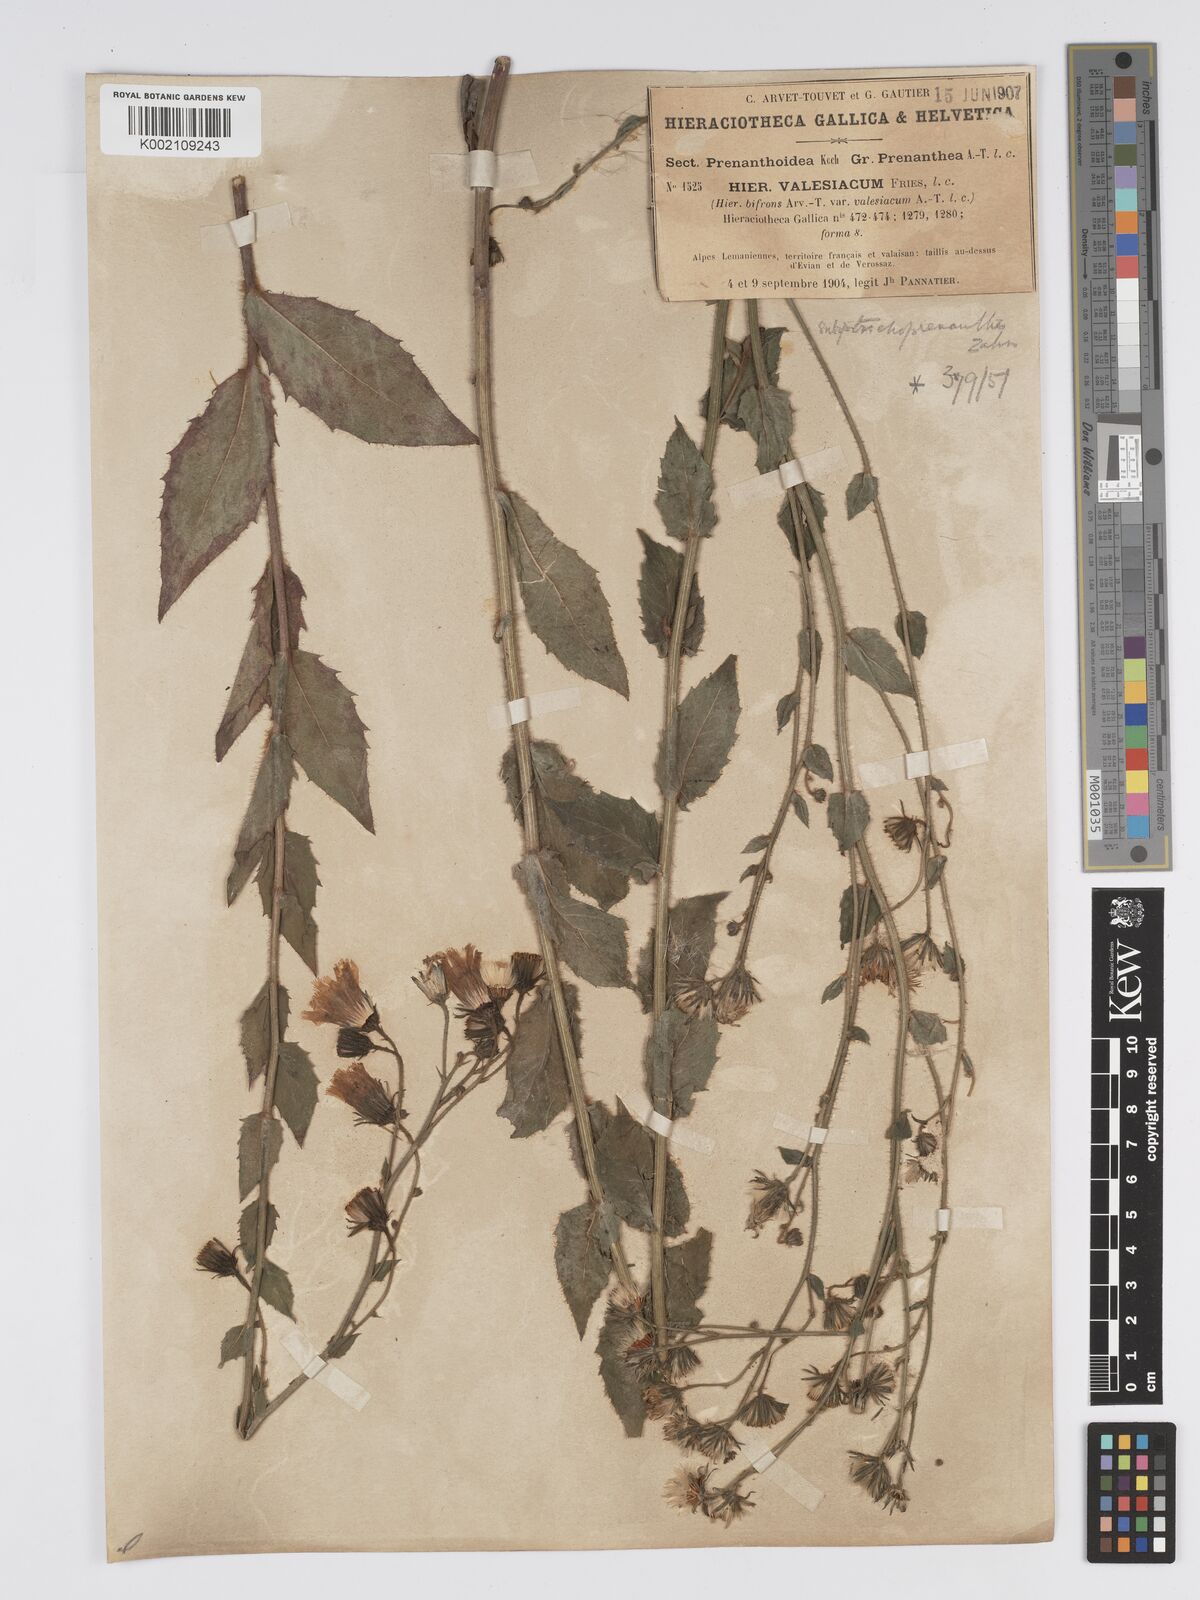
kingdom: Plantae
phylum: Tracheophyta
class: Magnoliopsida
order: Asterales
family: Asteraceae
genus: Hieracium
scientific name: Hieracium lycopifolium
